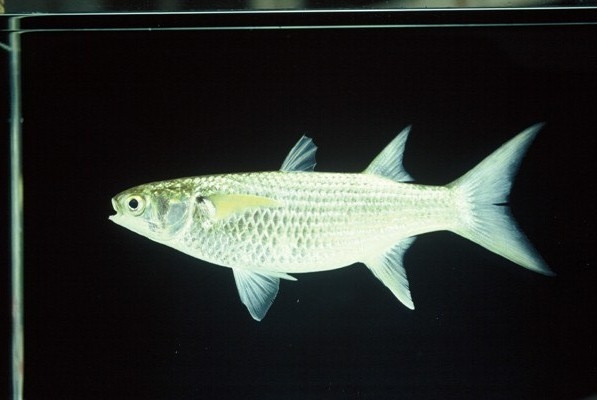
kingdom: Animalia
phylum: Chordata
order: Mugiliformes
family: Mugilidae
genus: Crenimugil
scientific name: Crenimugil buchanani
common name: Bluetail mullet
